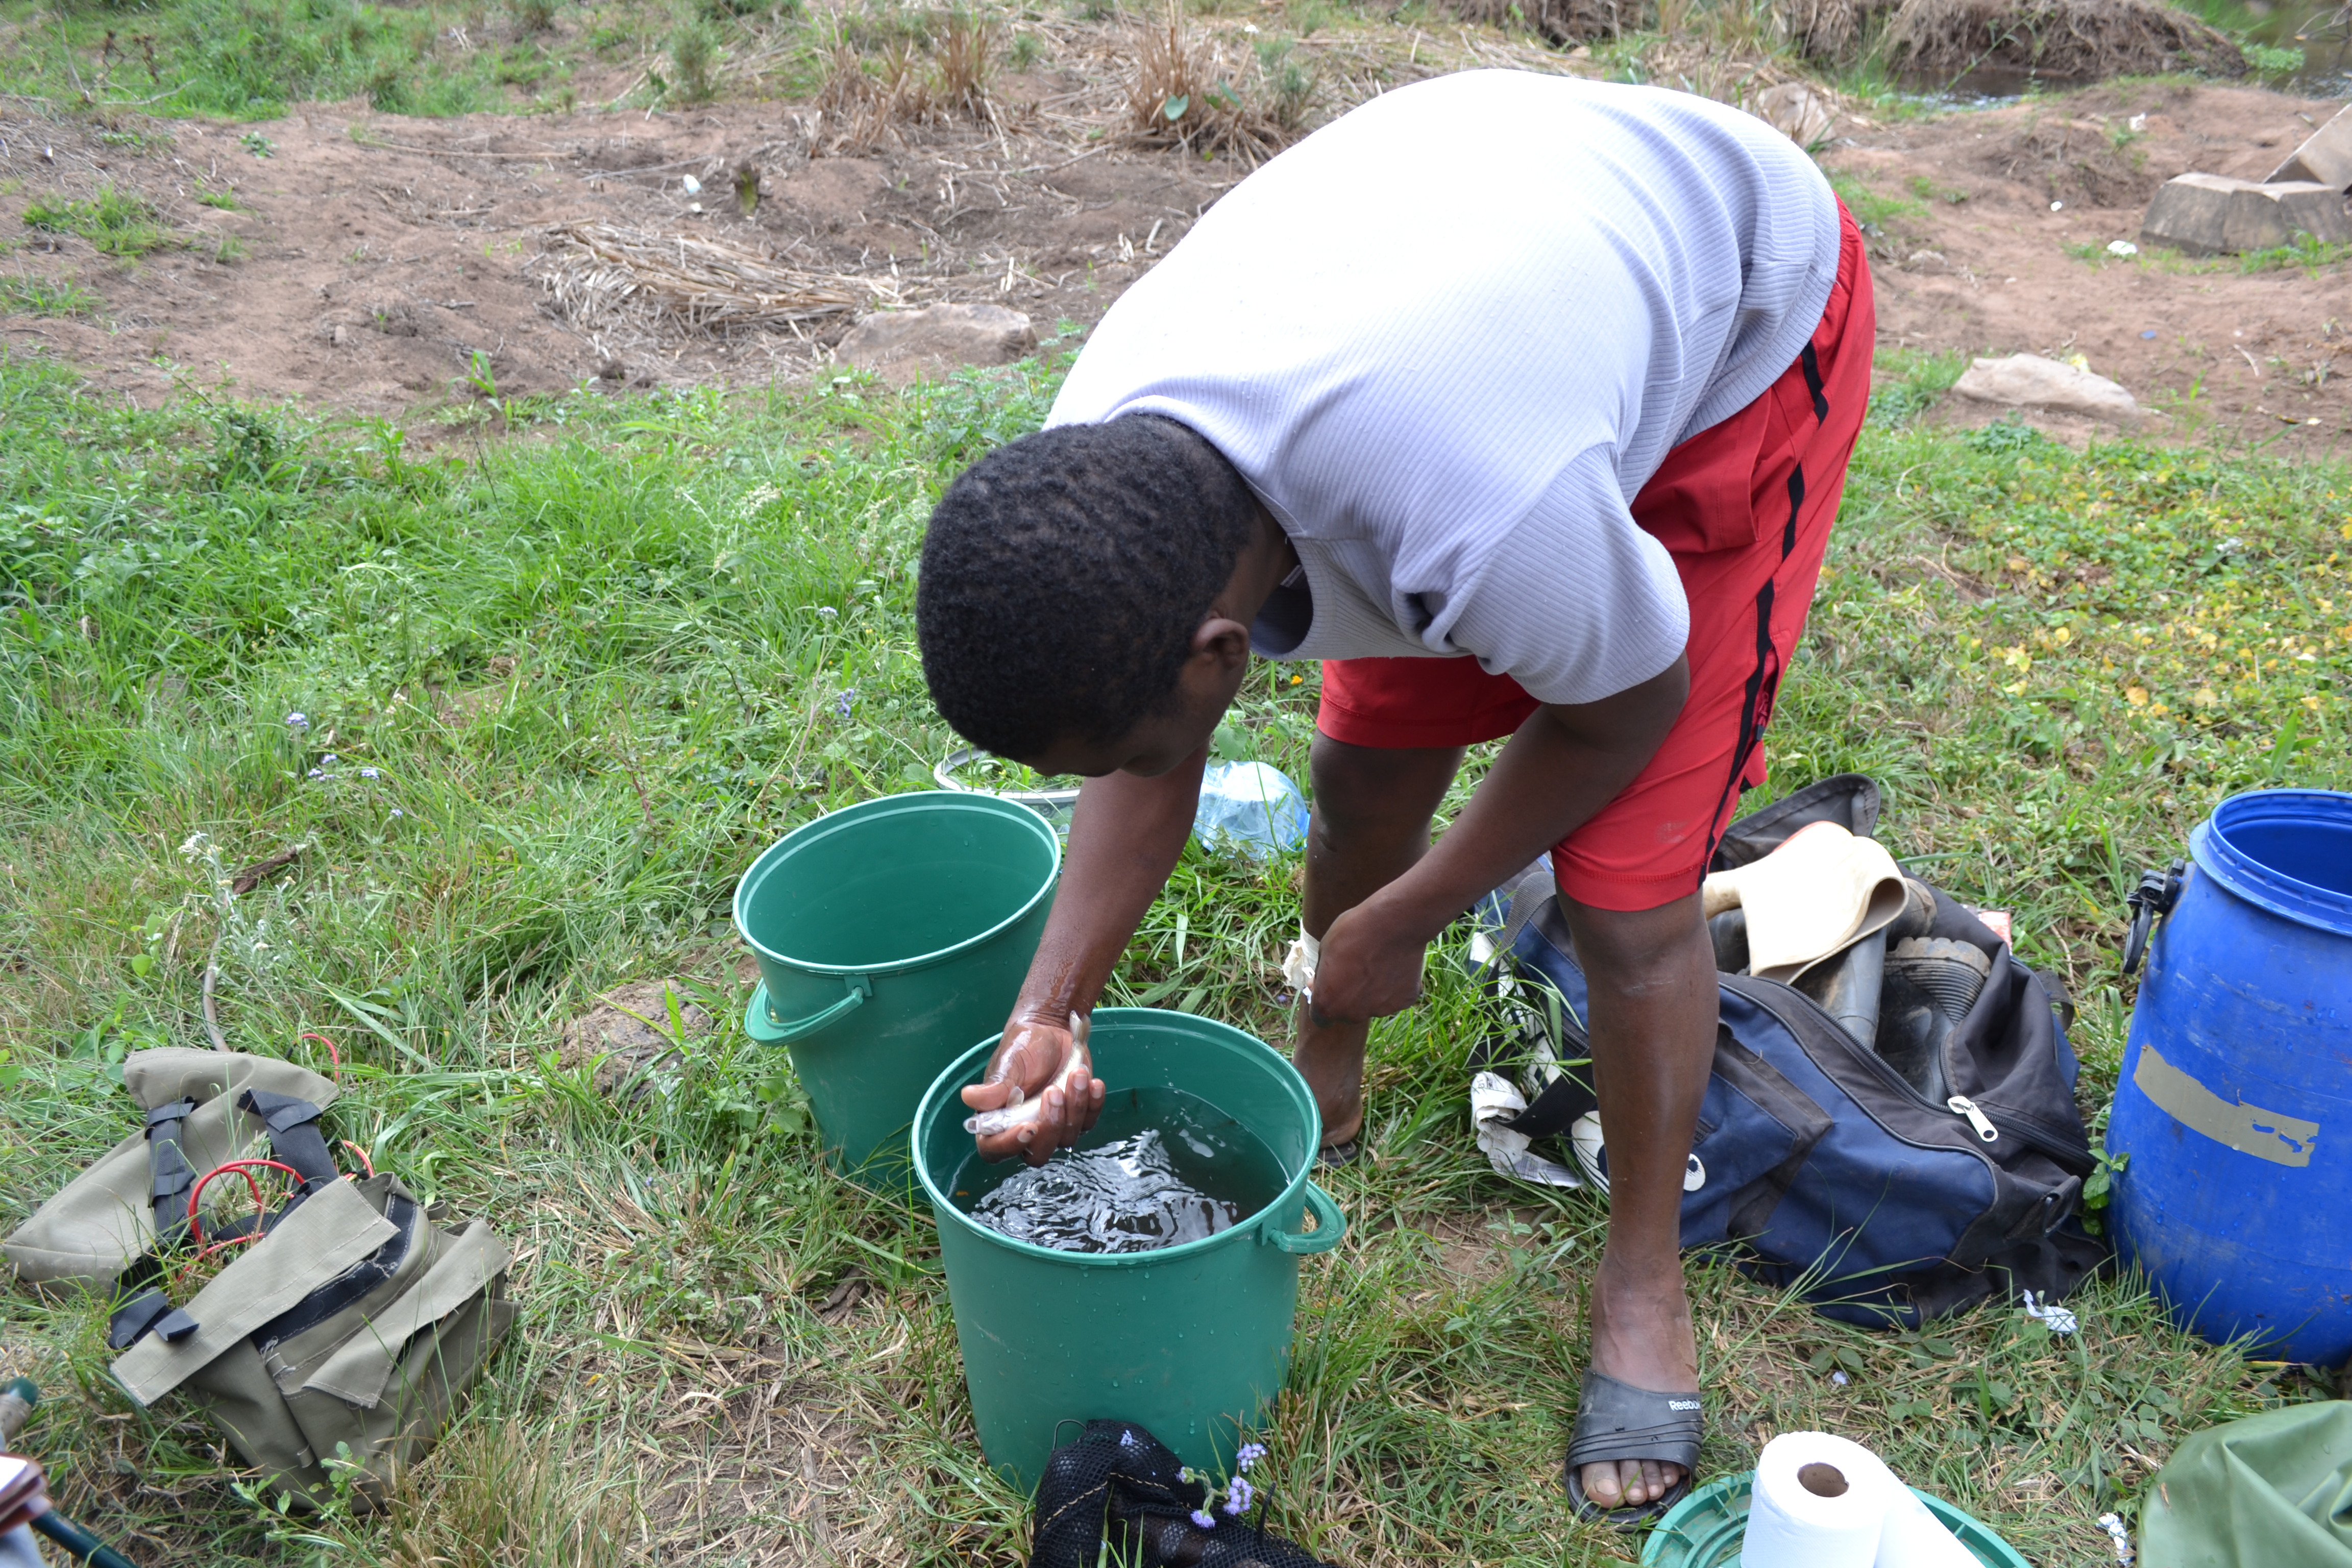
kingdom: Animalia
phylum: Chordata
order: Perciformes
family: Cichlidae
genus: Pseudocrenilabrus
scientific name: Pseudocrenilabrus philander
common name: Southern mouthbrooder
